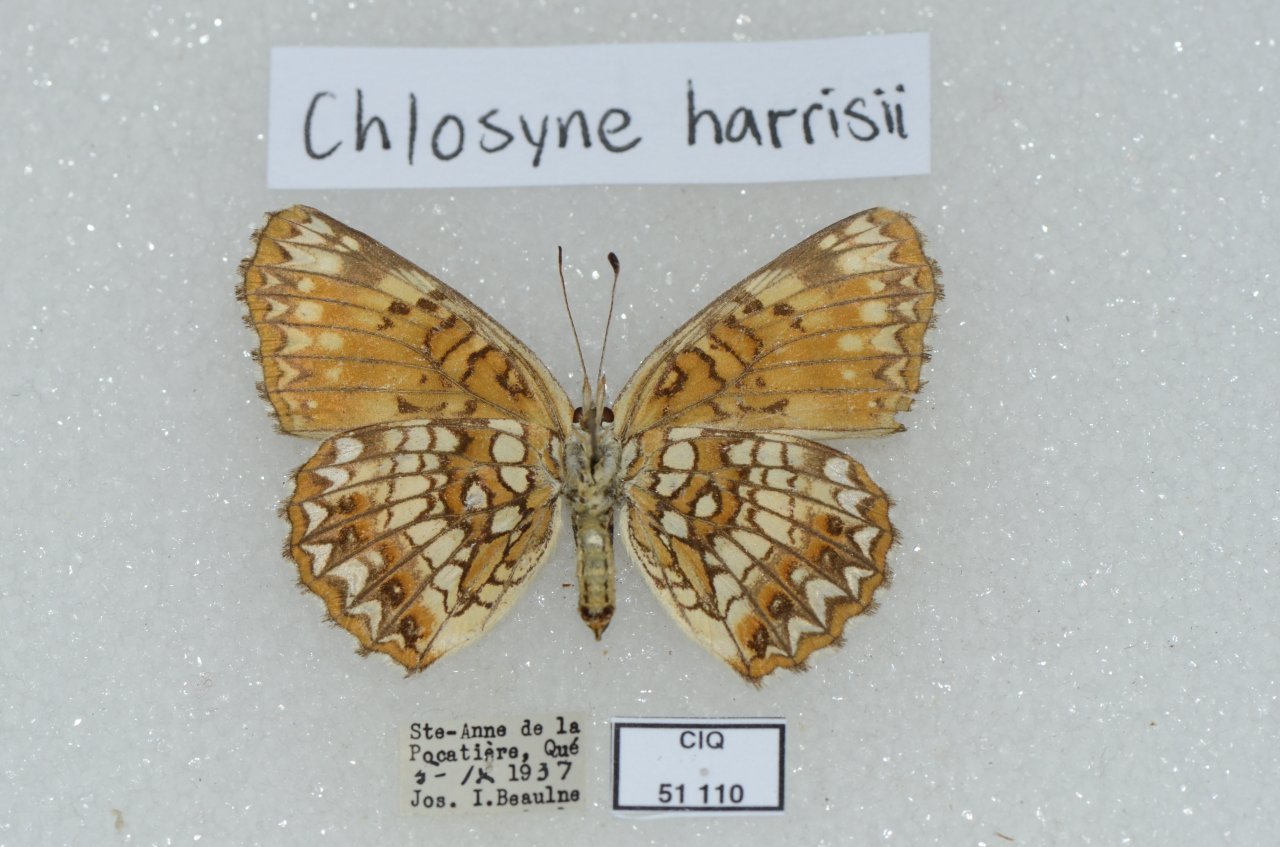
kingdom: Animalia
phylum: Arthropoda
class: Insecta
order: Lepidoptera
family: Nymphalidae
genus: Chlosyne
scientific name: Chlosyne nycteis
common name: Silvery Checkerspot
